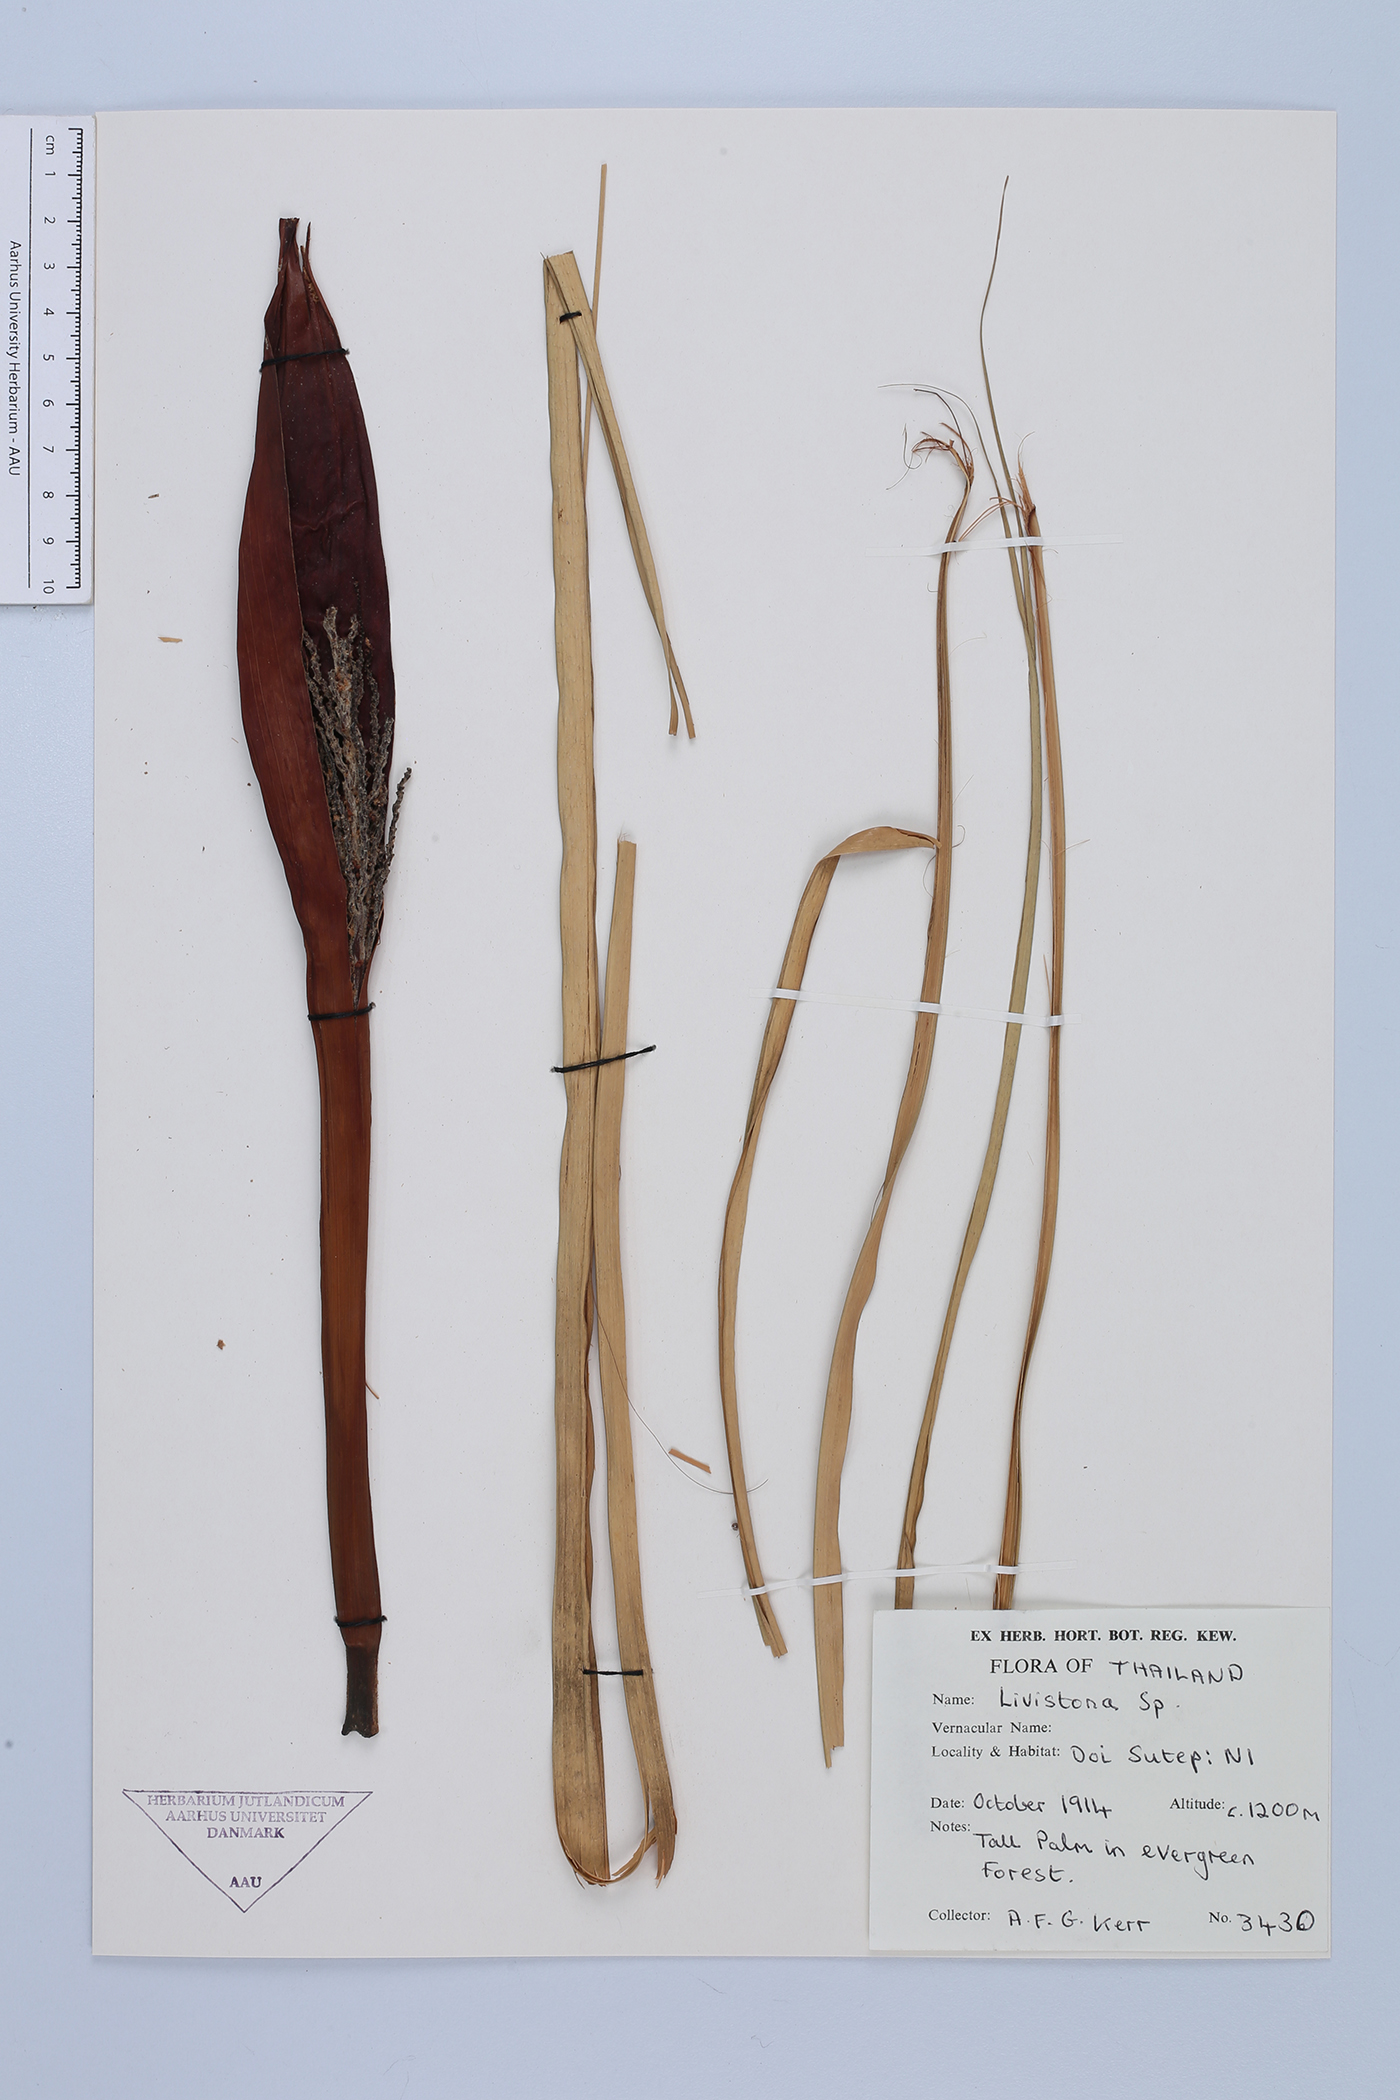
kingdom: Plantae
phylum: Tracheophyta
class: Liliopsida
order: Arecales
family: Arecaceae
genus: Livistona
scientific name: Livistona
